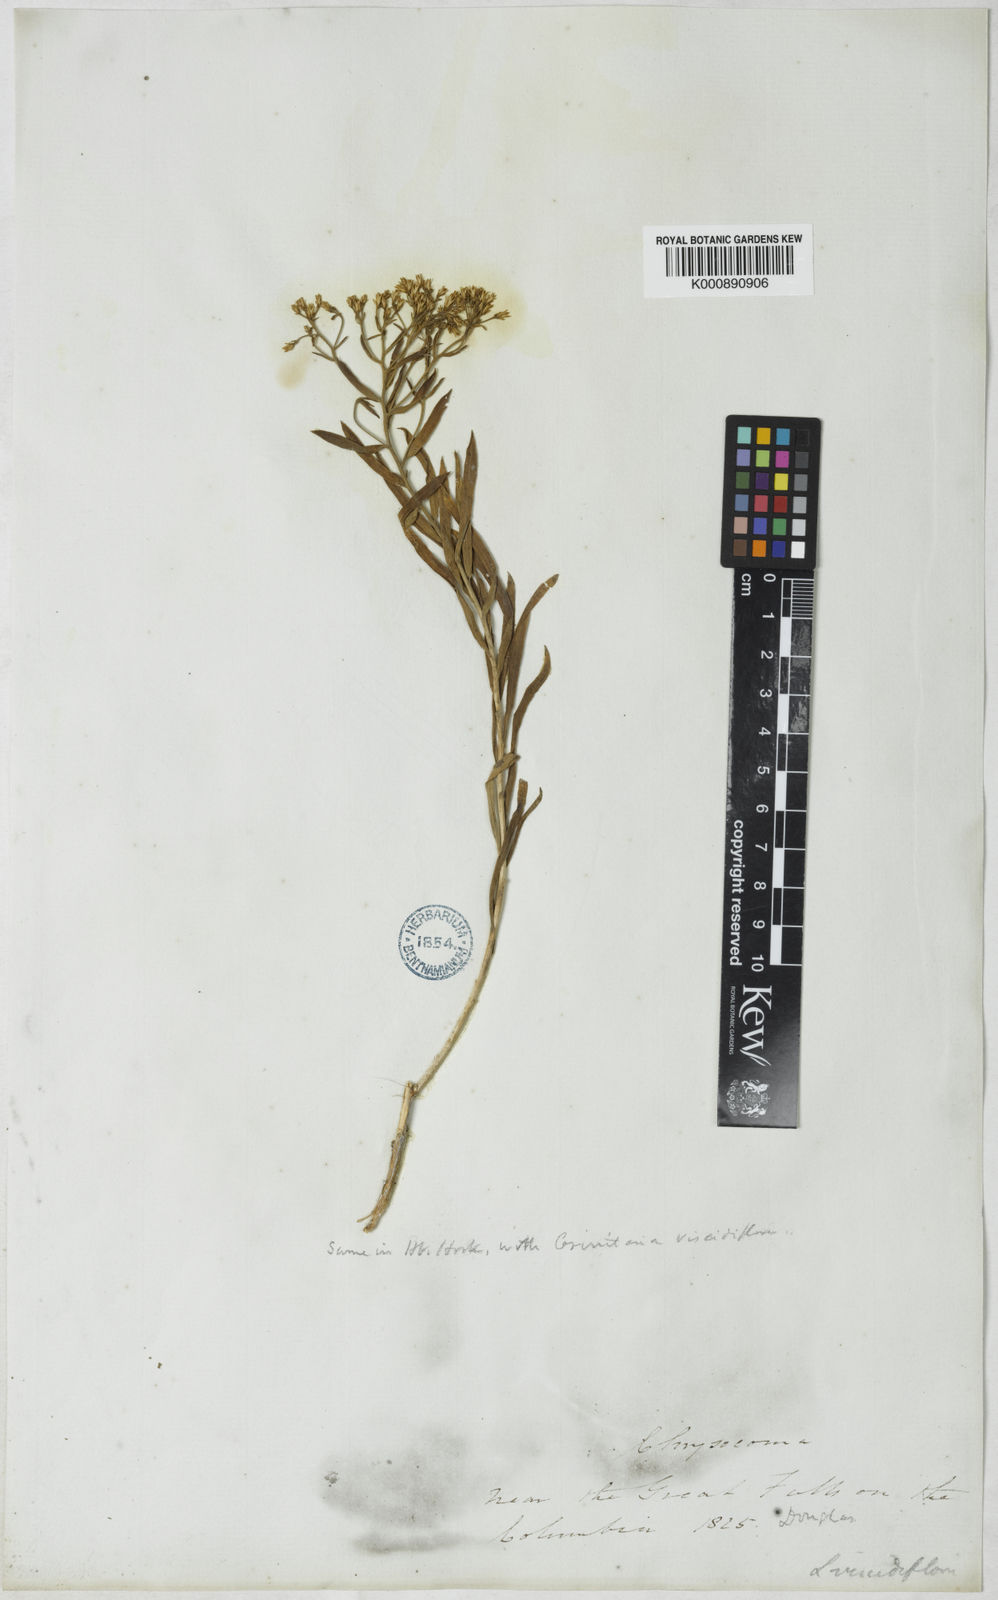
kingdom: Plantae
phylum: Tracheophyta
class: Magnoliopsida
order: Asterales
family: Asteraceae
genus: Chrysothamnus
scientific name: Chrysothamnus viscidiflorus
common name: Yellow rabbitbrush
